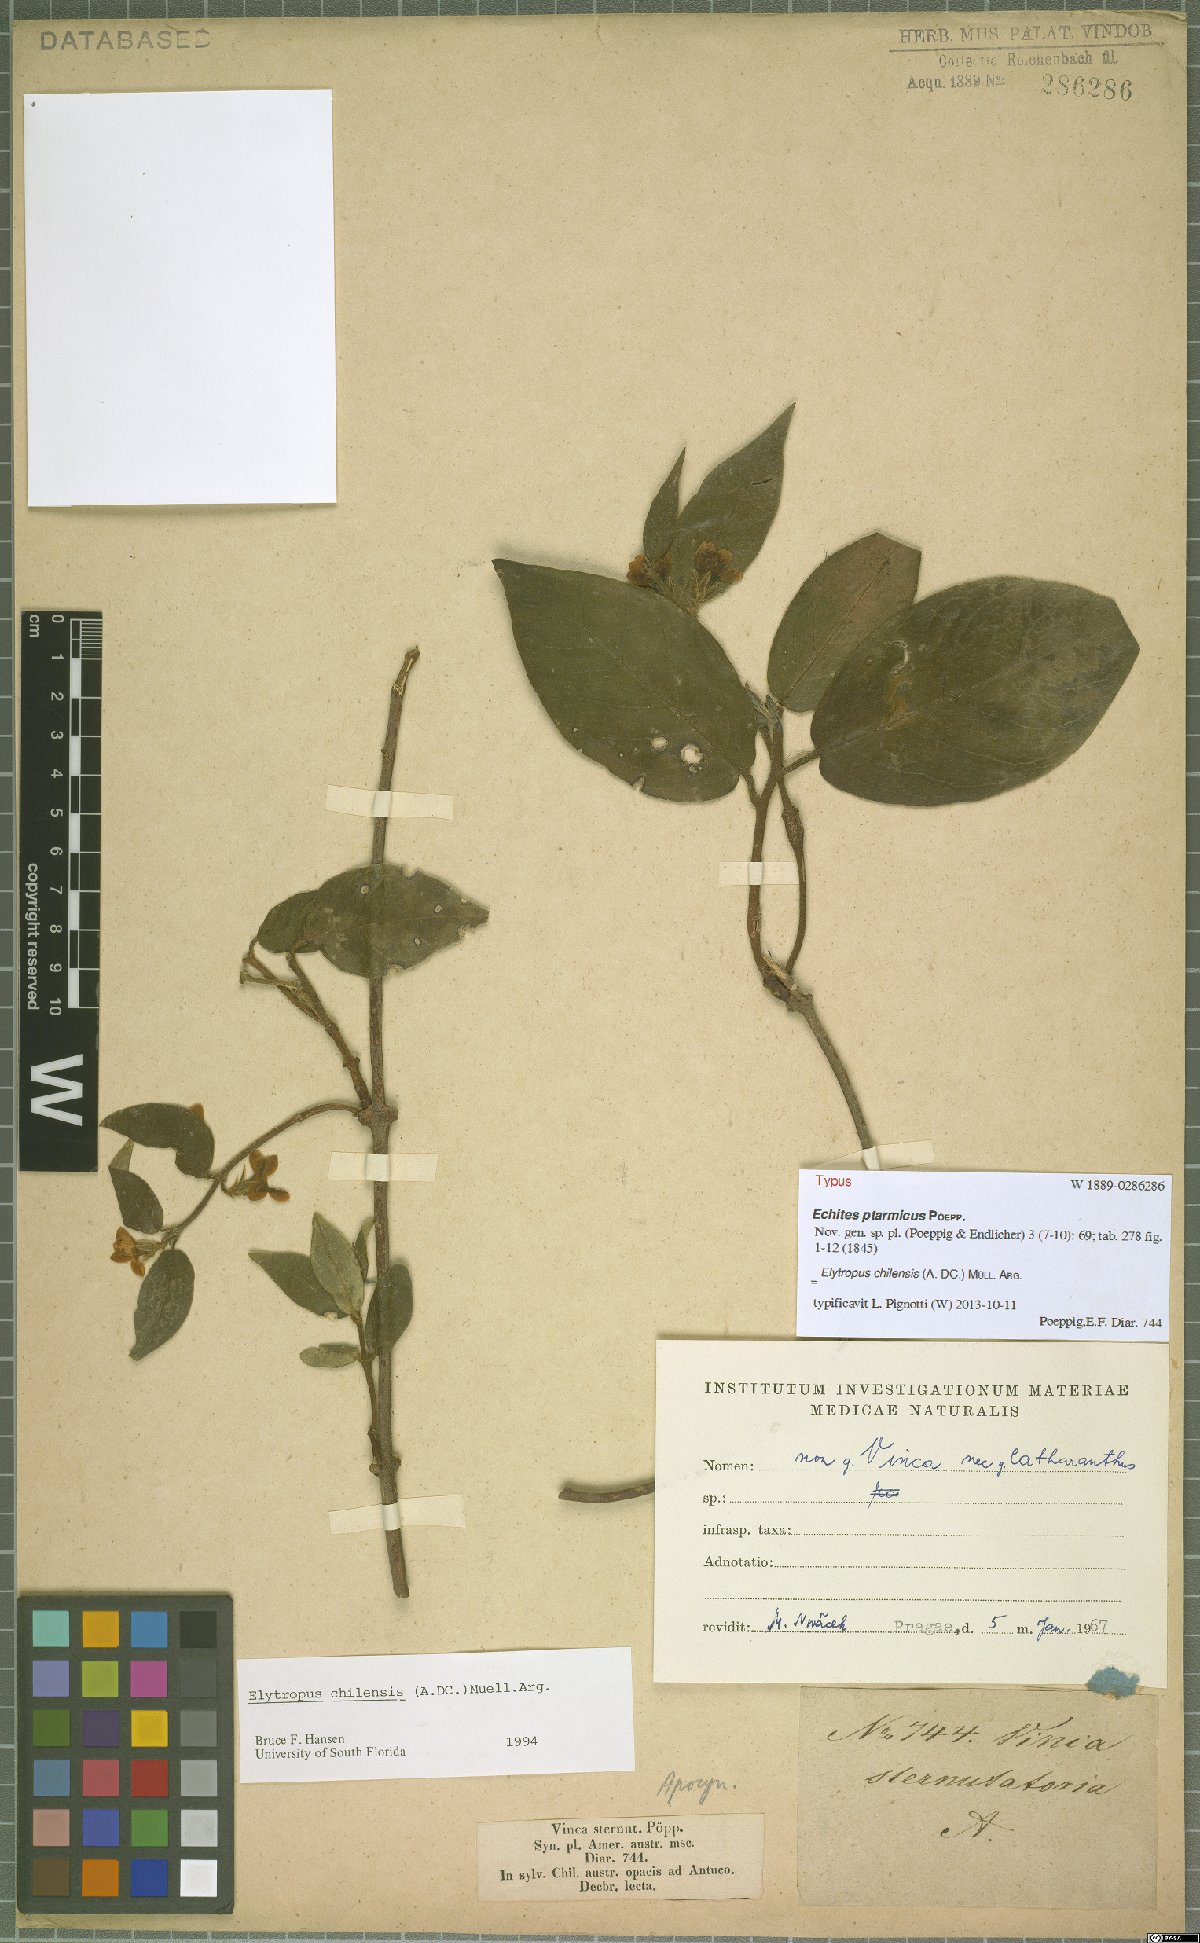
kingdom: Plantae
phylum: Tracheophyta
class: Magnoliopsida
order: Gentianales
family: Apocynaceae
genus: Mandevilla
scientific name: Mandevilla pubescens
